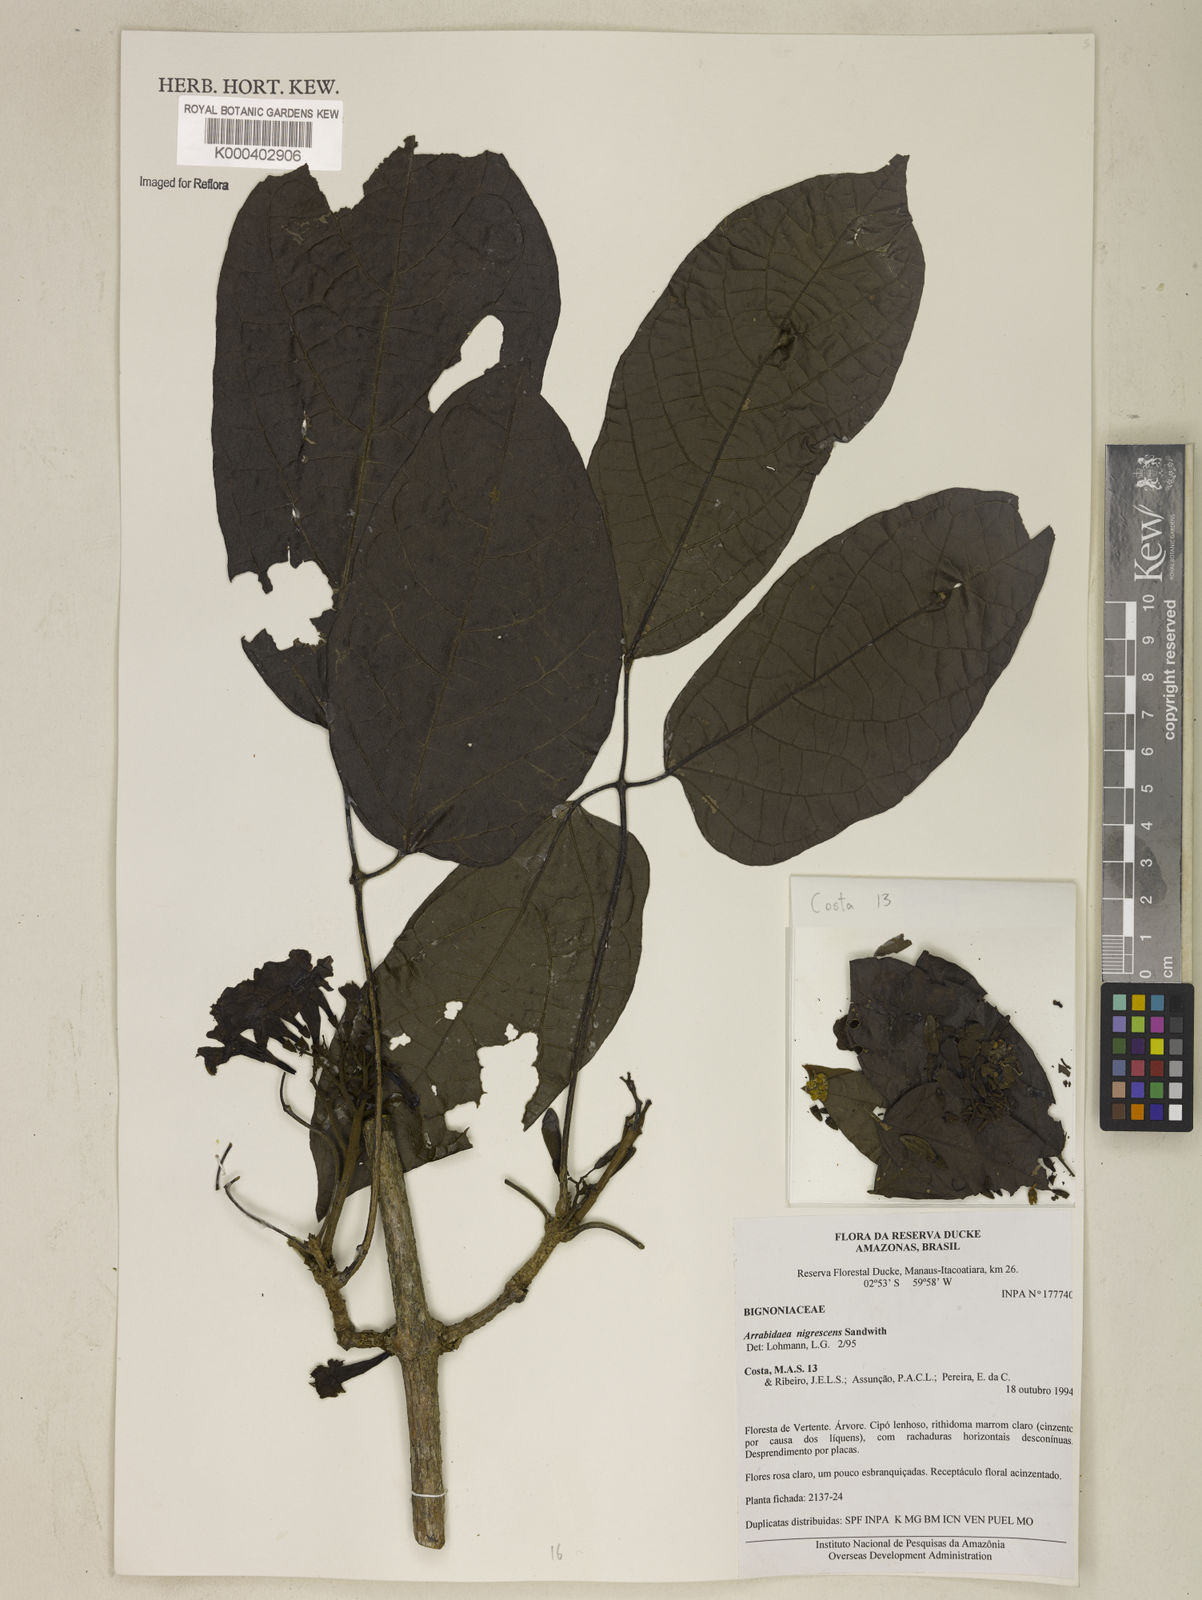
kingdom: Plantae
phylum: Tracheophyta
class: Magnoliopsida
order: Lamiales
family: Bignoniaceae
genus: Fridericia
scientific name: Fridericia nigrescens
